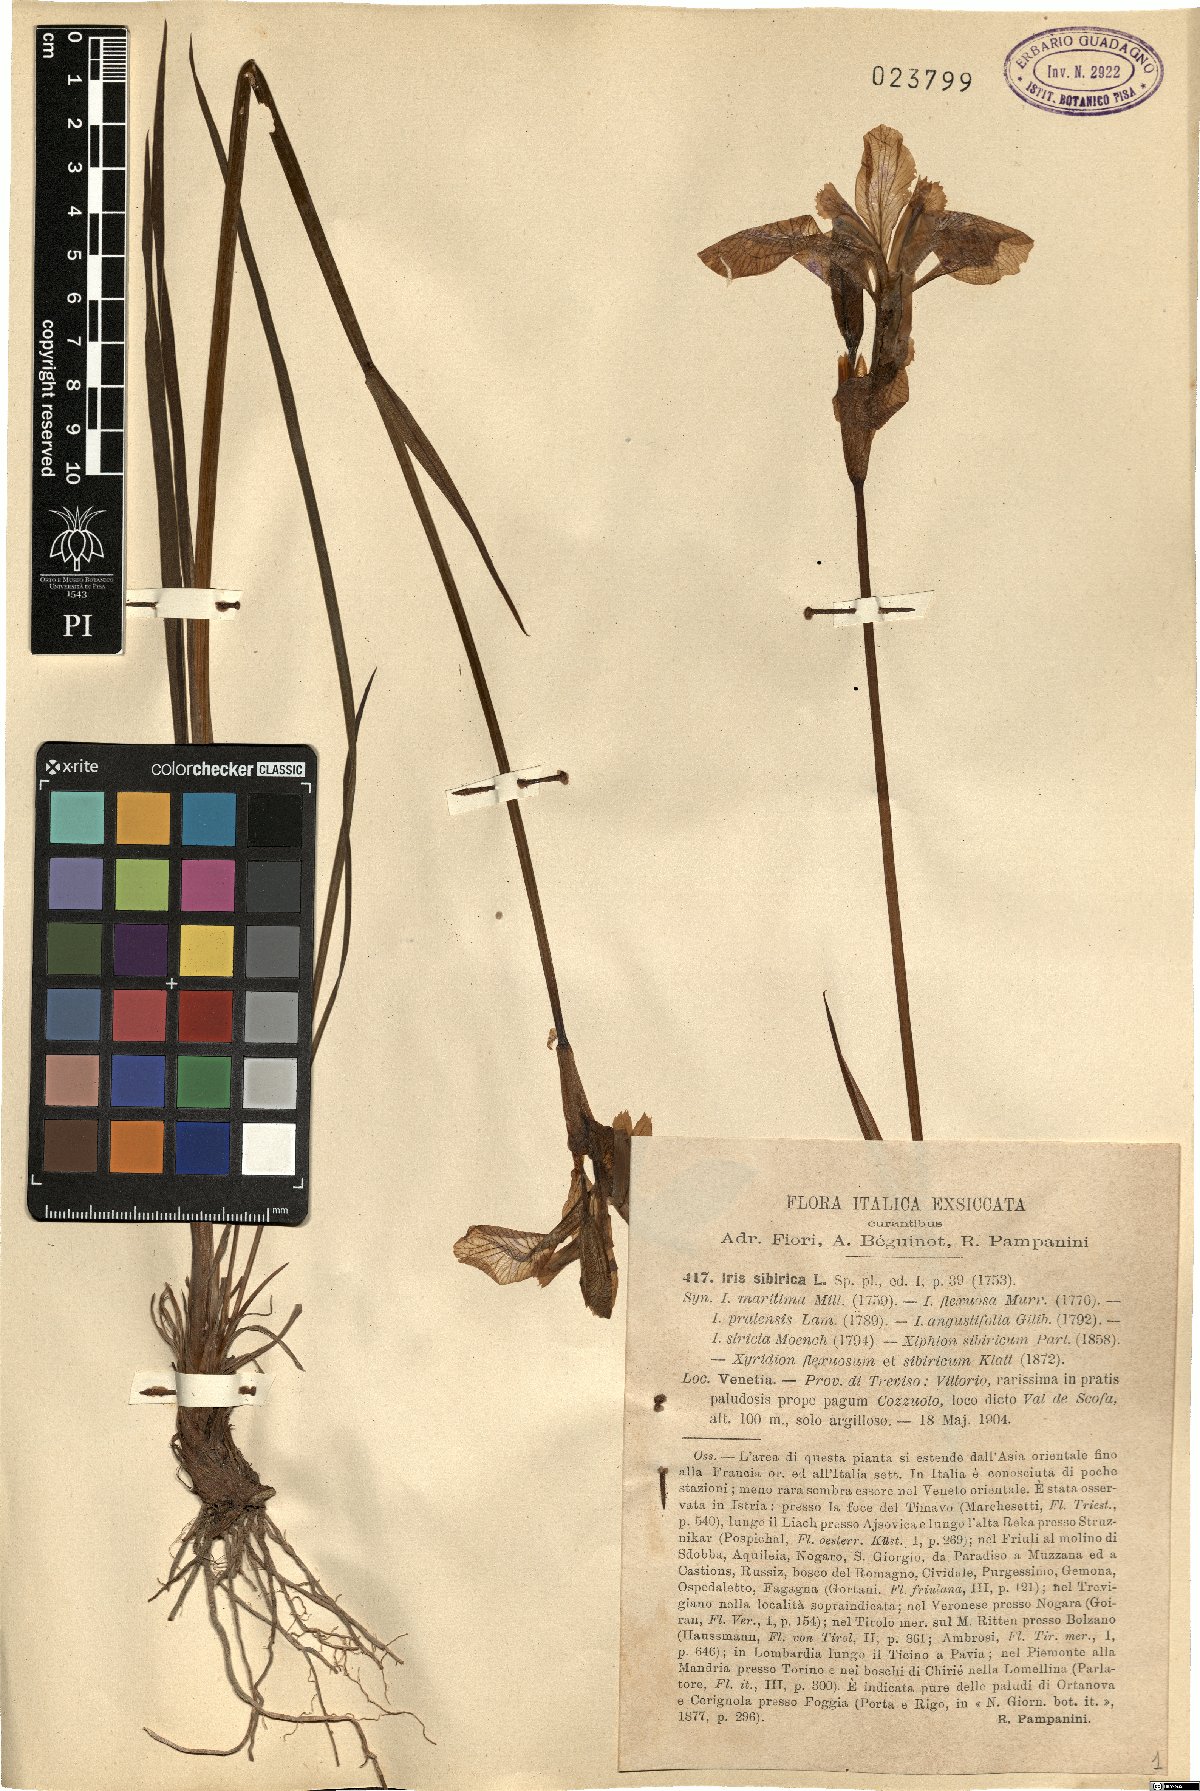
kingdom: Plantae
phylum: Tracheophyta
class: Liliopsida
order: Asparagales
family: Iridaceae
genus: Iris
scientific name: Iris sibirica
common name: Siberian iris
